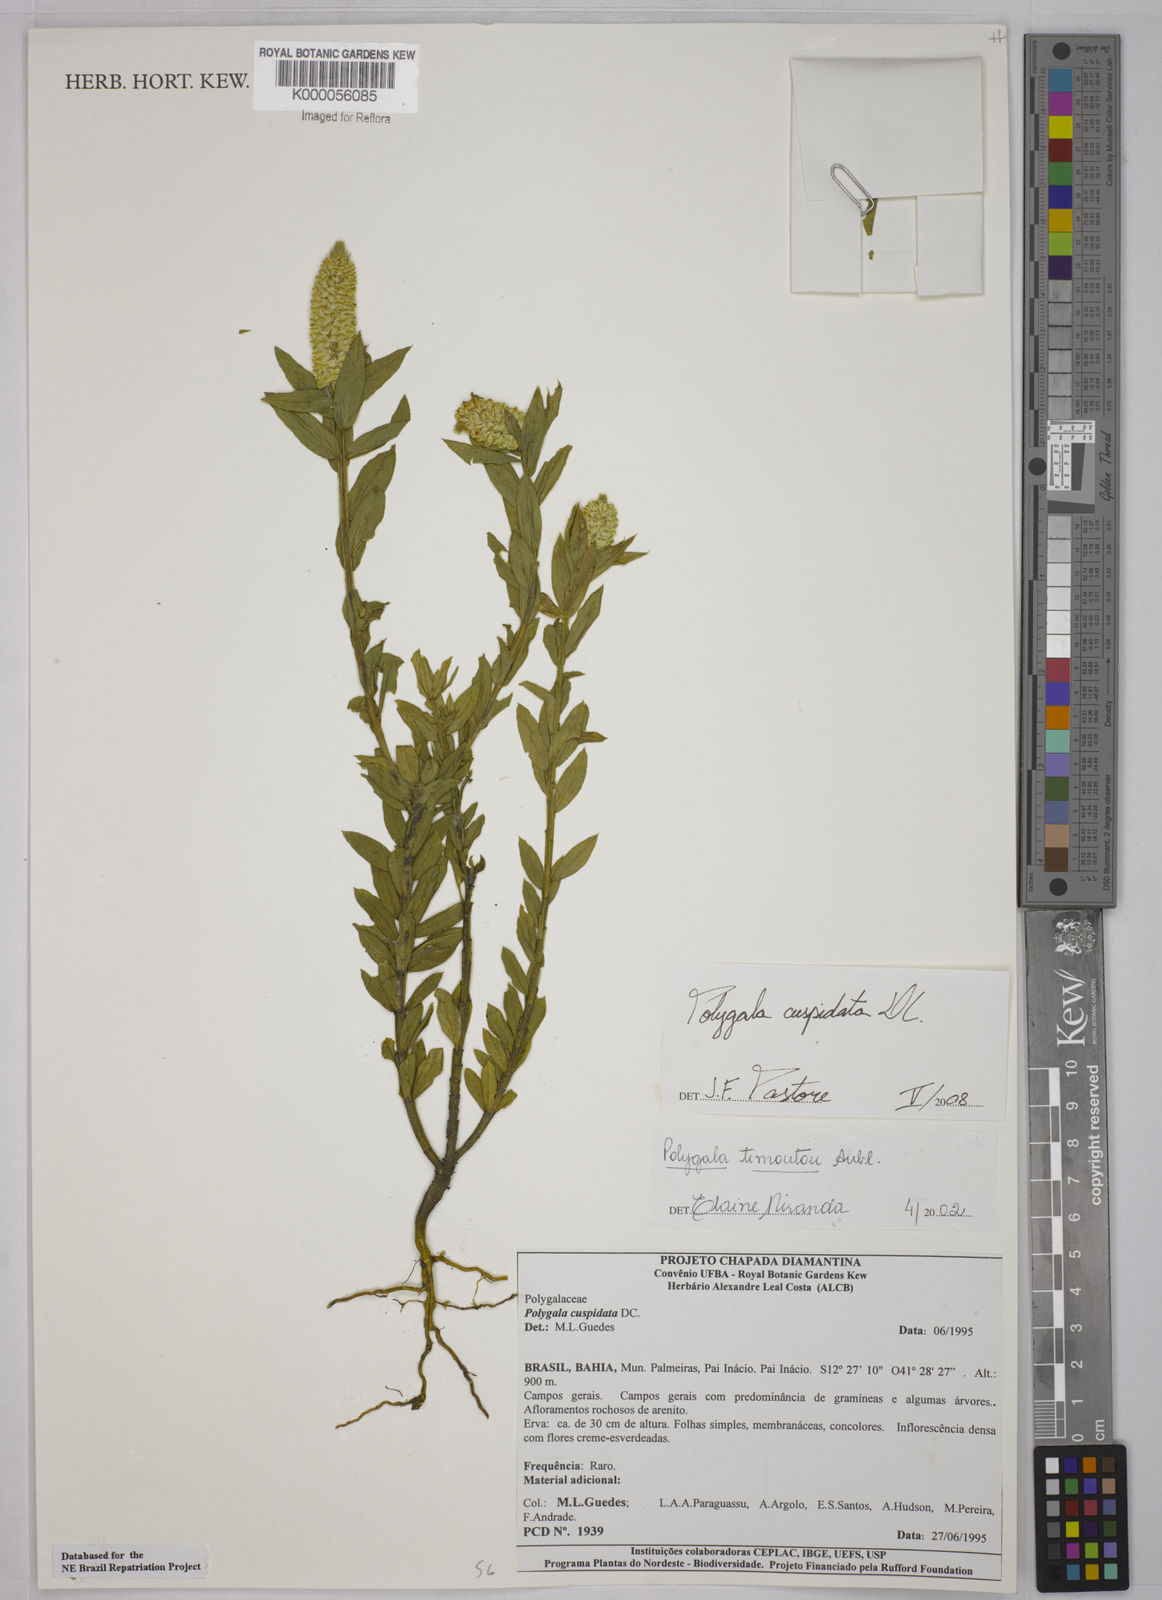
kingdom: Plantae
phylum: Tracheophyta
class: Magnoliopsida
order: Fabales
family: Polygalaceae
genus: Polygala
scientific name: Polygala timoutou
